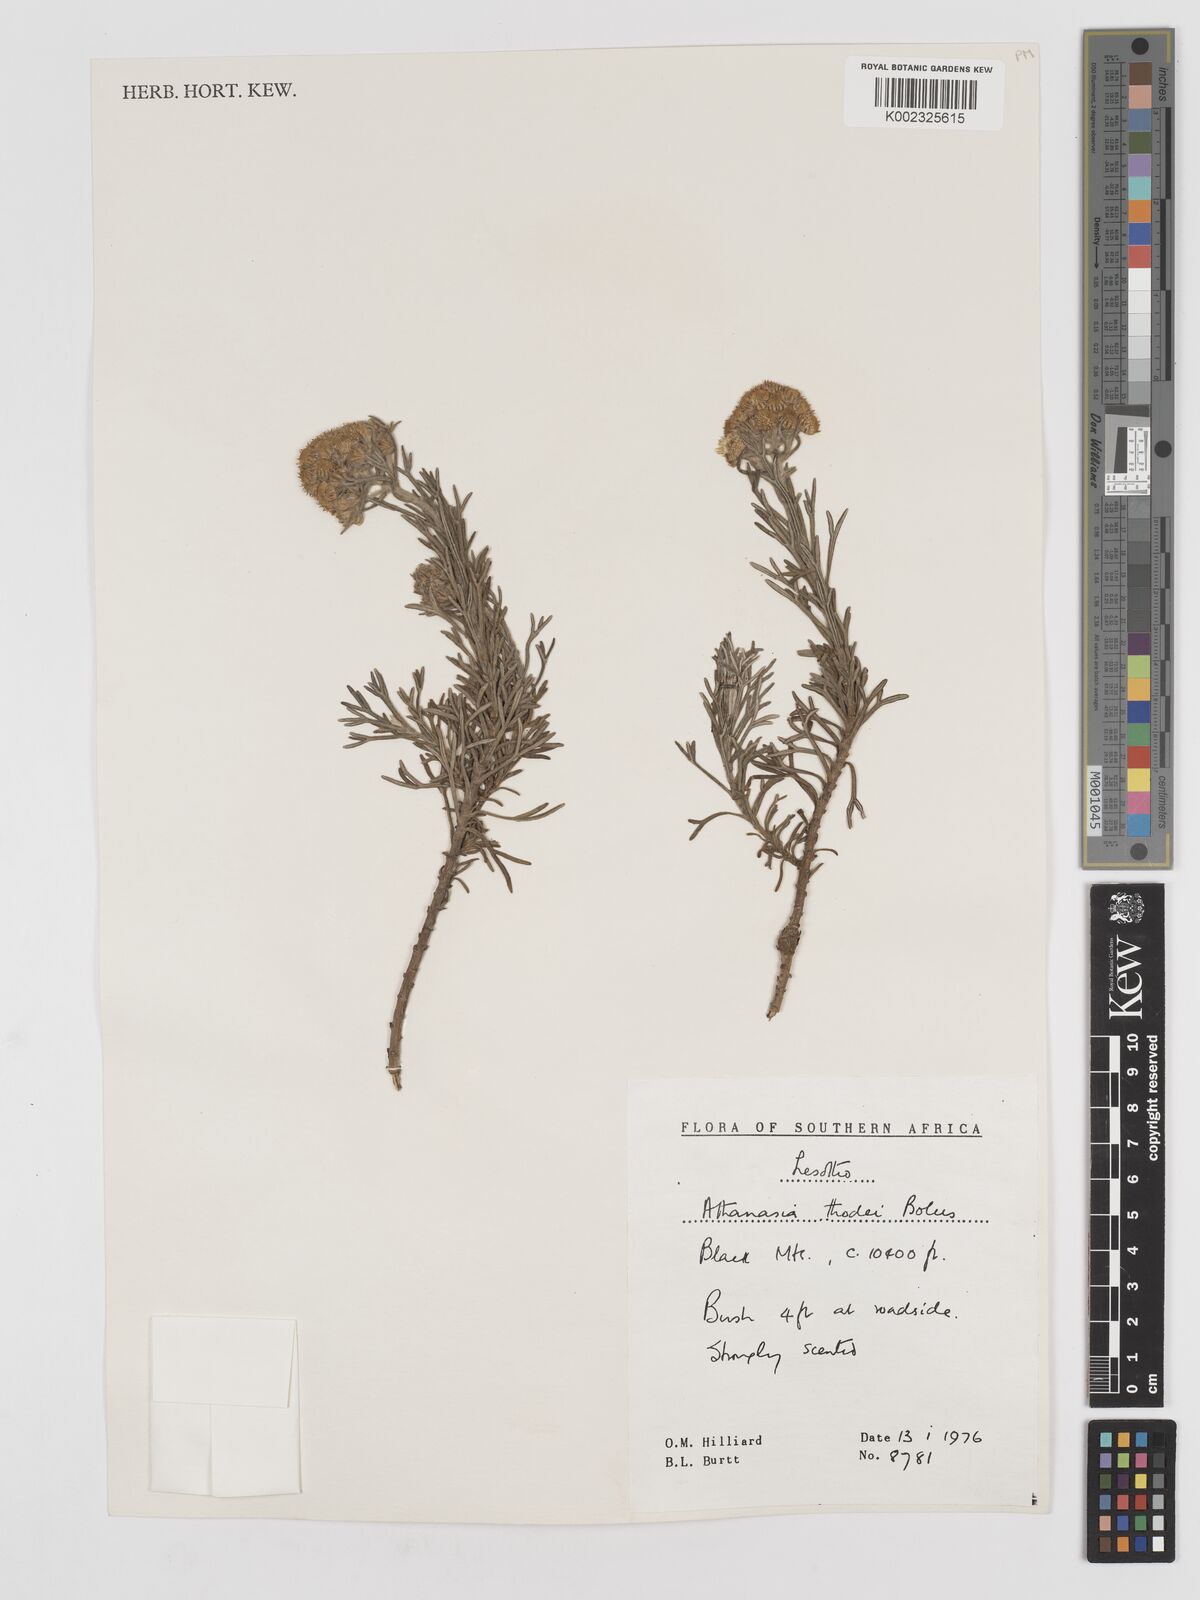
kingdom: Plantae
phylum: Tracheophyta
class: Magnoliopsida
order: Asterales
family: Asteraceae
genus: Inulanthera
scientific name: Inulanthera thodei
